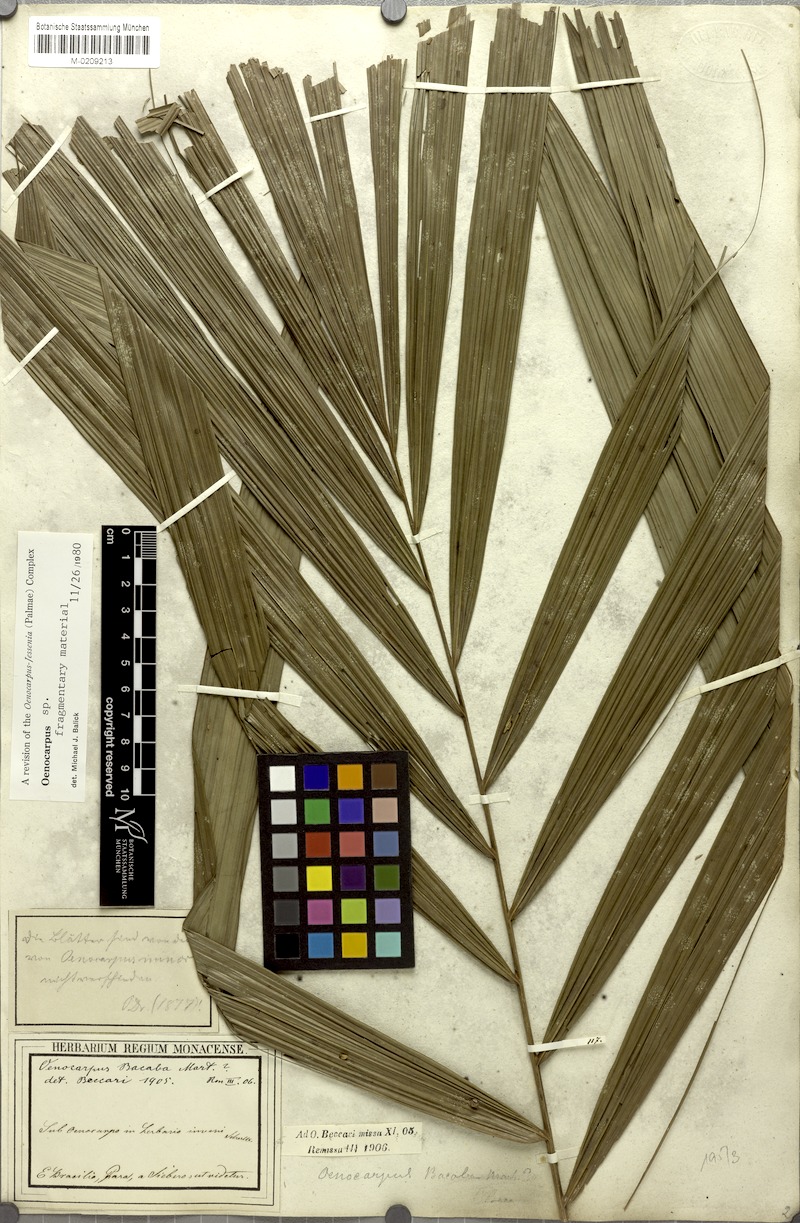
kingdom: Plantae
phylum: Tracheophyta
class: Liliopsida
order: Arecales
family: Arecaceae
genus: Oenocarpus
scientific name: Oenocarpus
